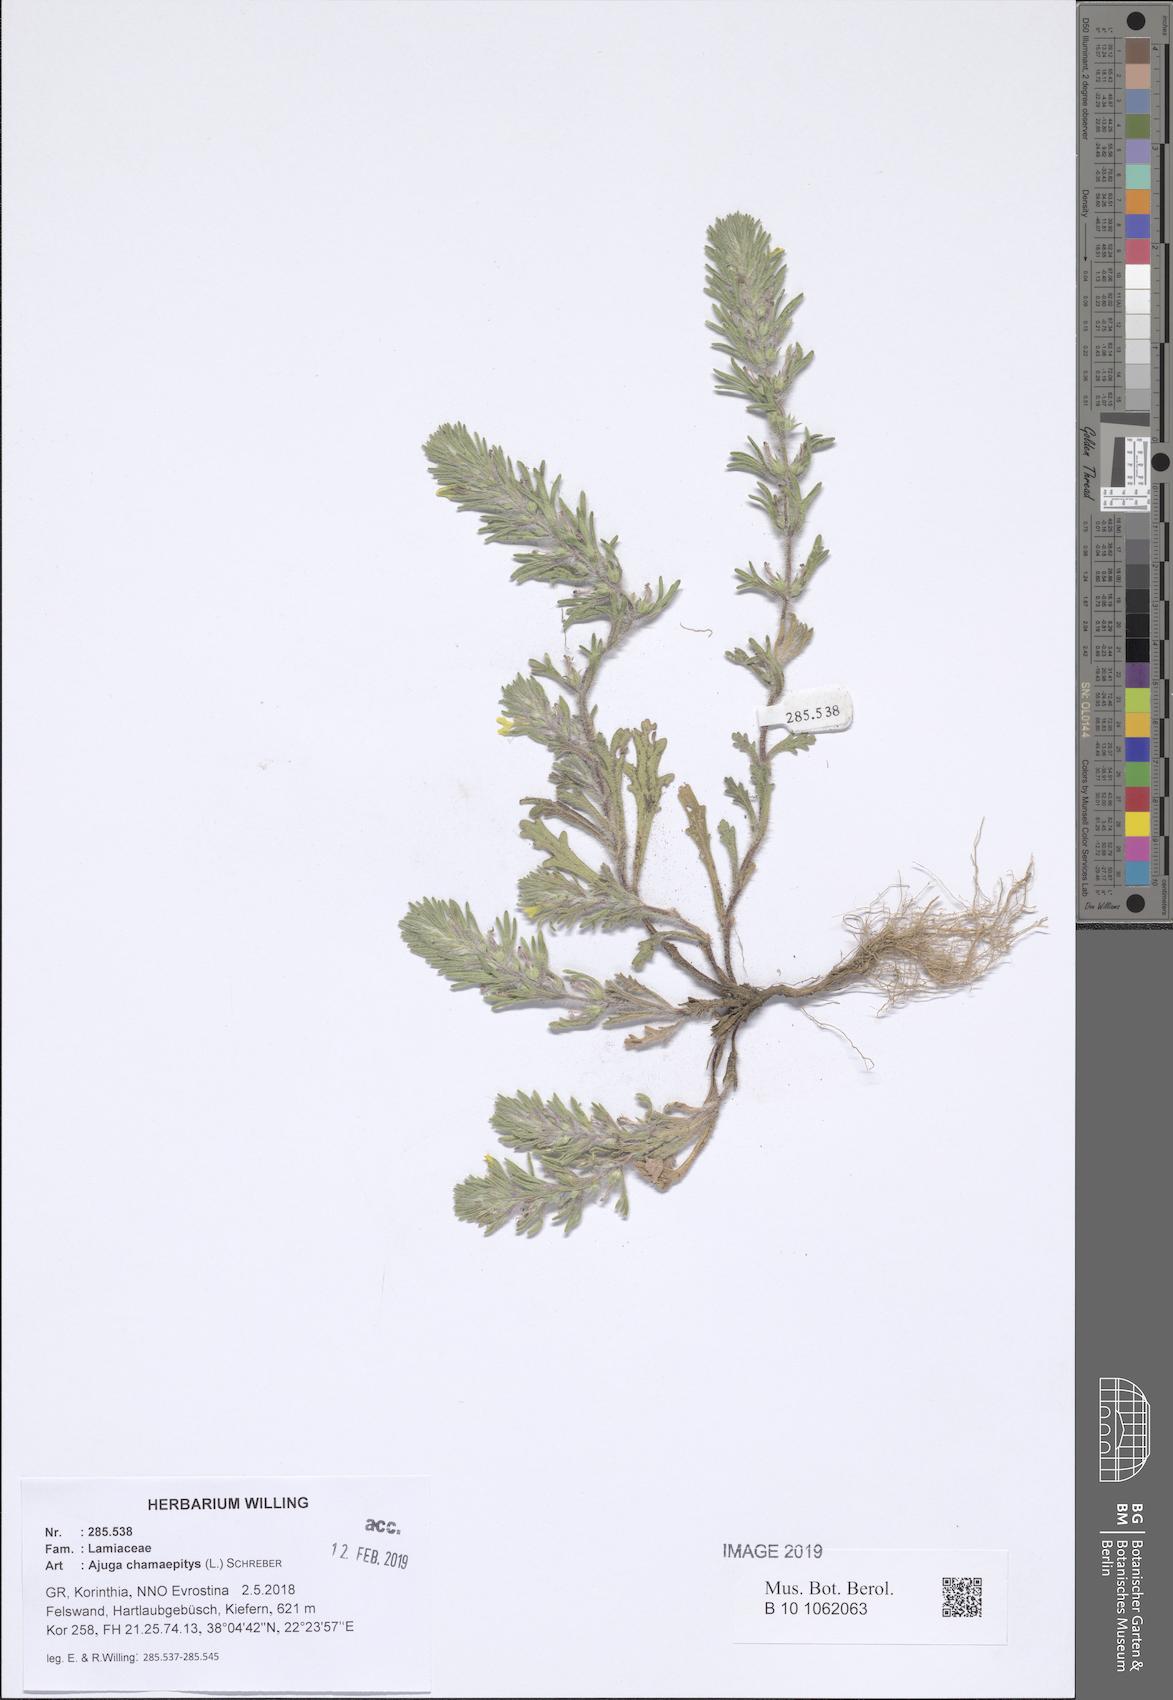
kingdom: Plantae
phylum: Tracheophyta
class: Magnoliopsida
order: Lamiales
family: Lamiaceae
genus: Ajuga
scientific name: Ajuga chamaepitys
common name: Ground-pine
